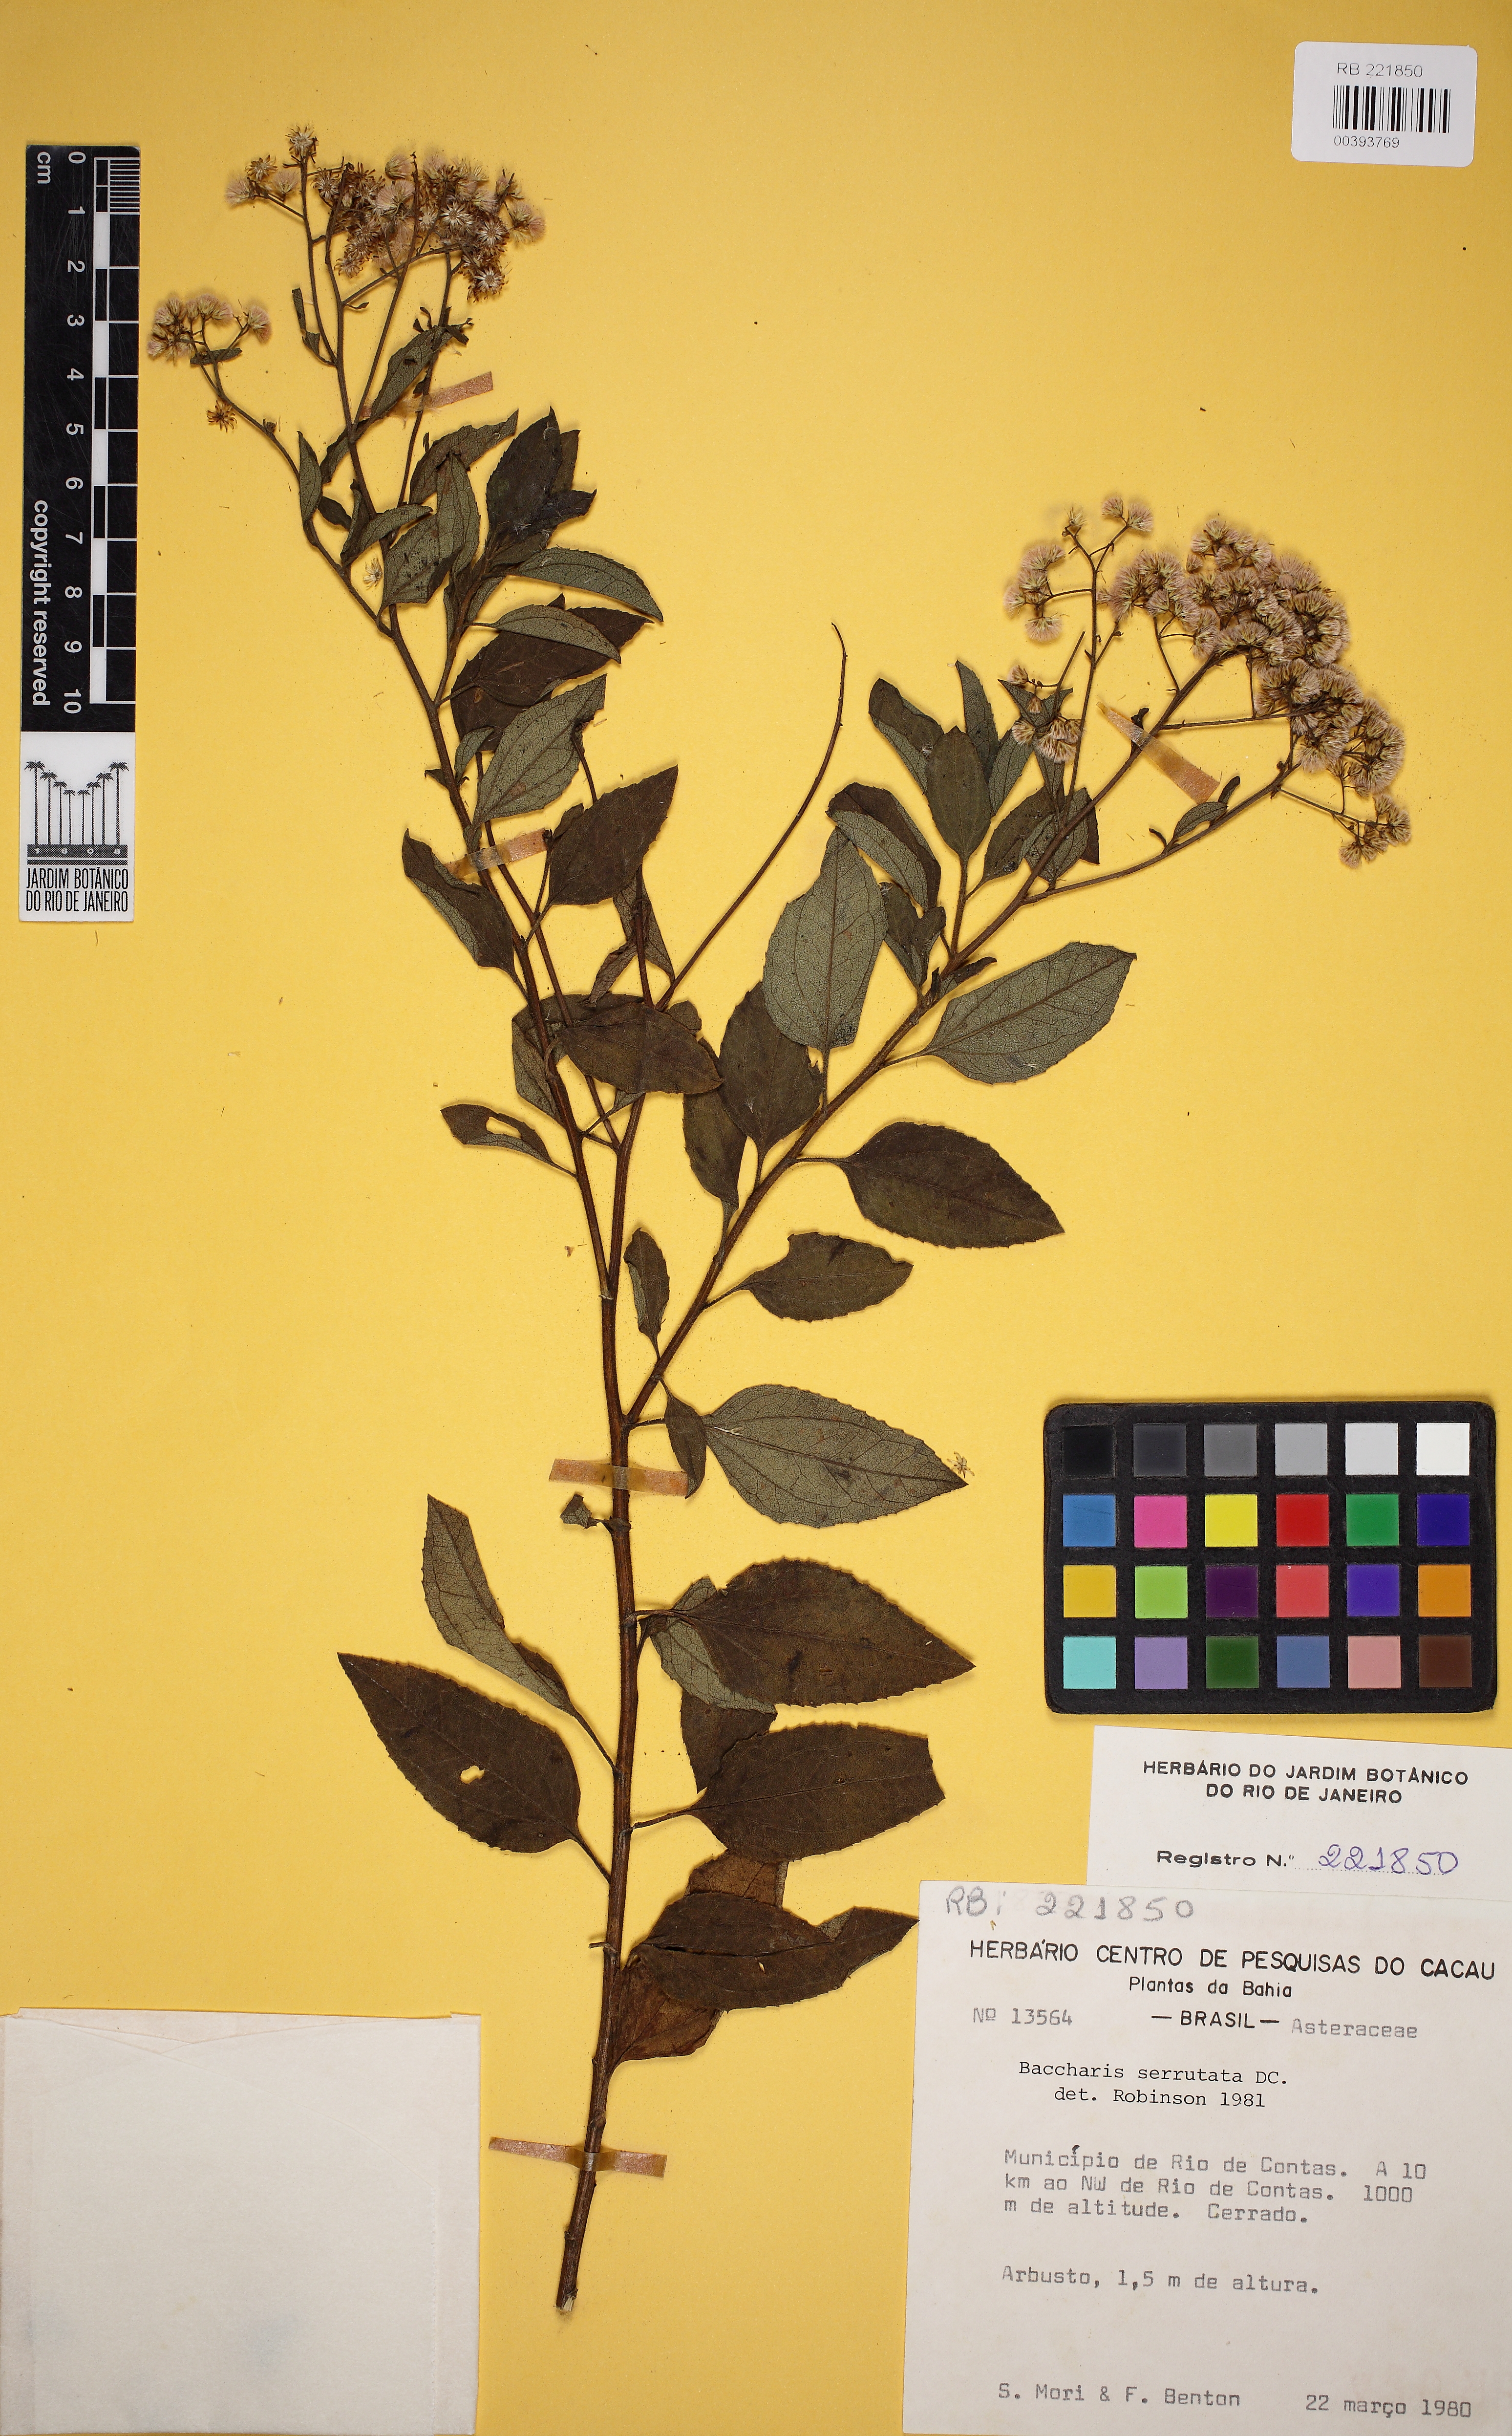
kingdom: Plantae
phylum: Tracheophyta
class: Magnoliopsida
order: Asterales
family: Asteraceae
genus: Baccharis
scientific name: Baccharis serrulata
